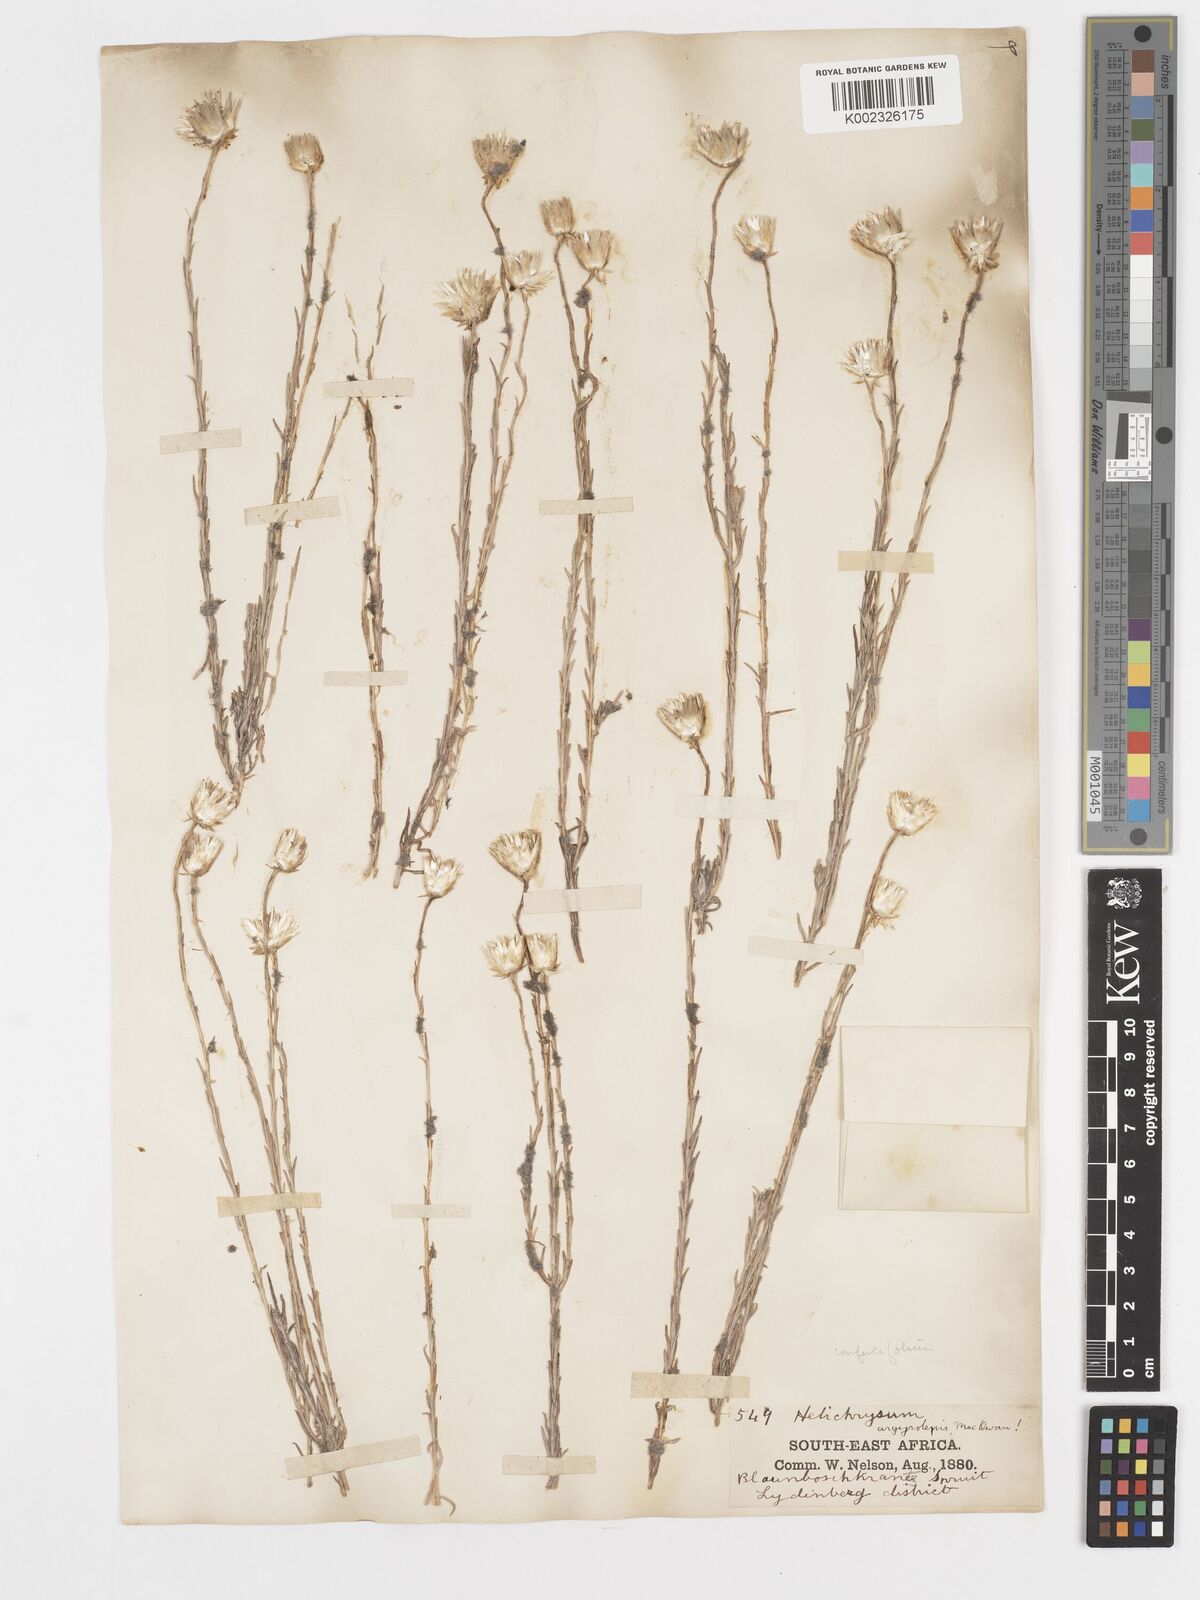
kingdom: Plantae
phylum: Tracheophyta
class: Magnoliopsida
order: Asterales
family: Asteraceae
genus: Helichrysum
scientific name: Helichrysum confertifolium
